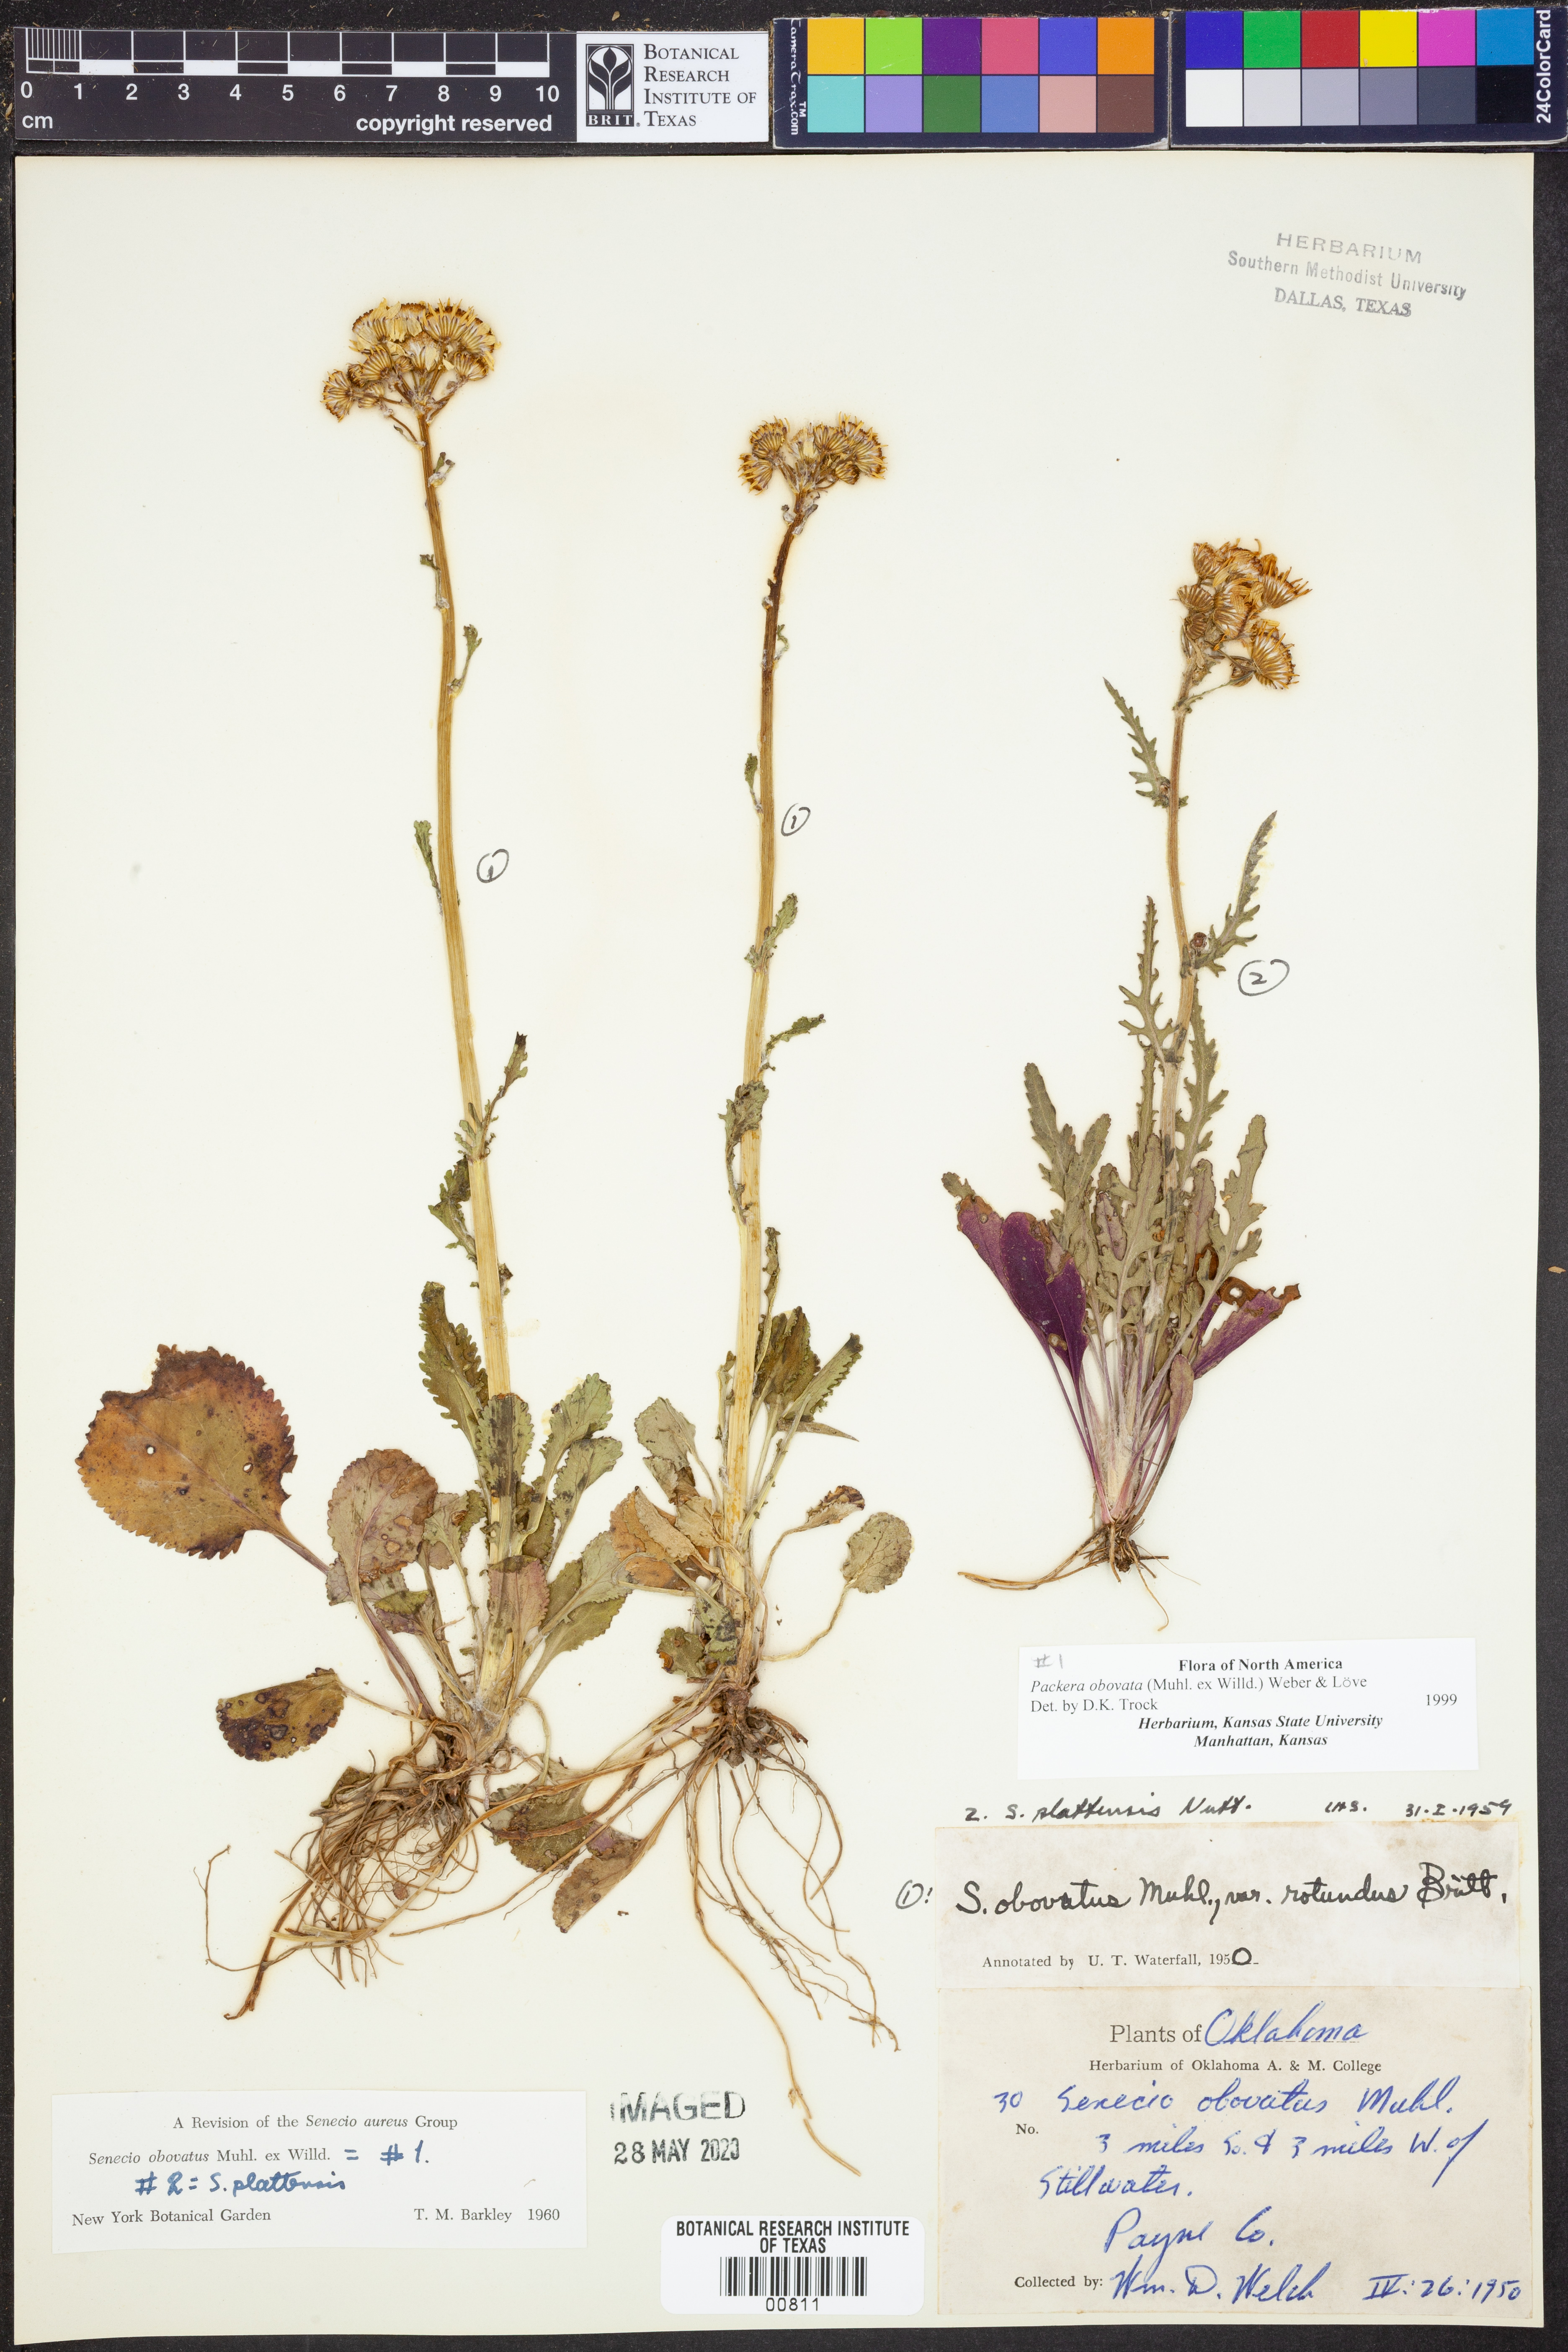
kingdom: Plantae
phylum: Tracheophyta
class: Magnoliopsida
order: Asterales
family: Asteraceae
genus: Packera
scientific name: Packera obovata
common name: Round-leaf ragwort
